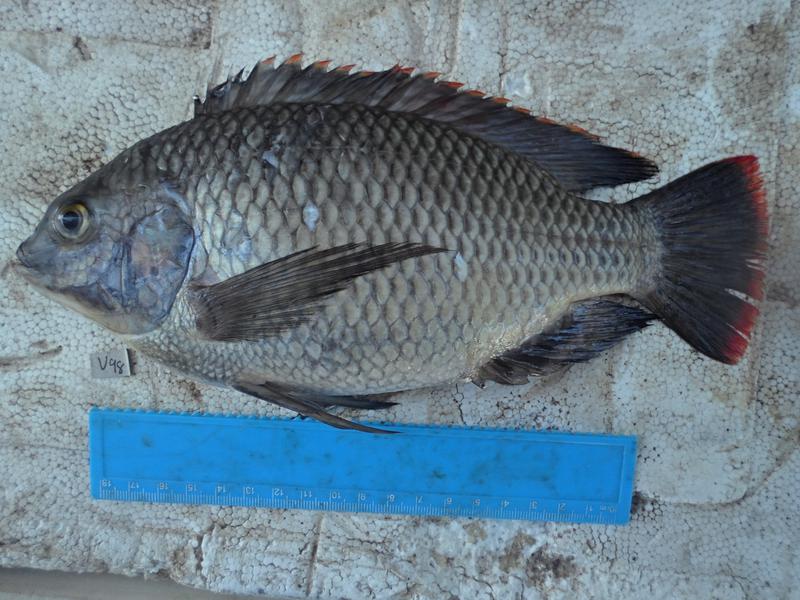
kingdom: Animalia
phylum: Chordata
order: Perciformes
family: Cichlidae
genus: Oreochromis
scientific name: Oreochromis variabilis
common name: Victoria tilapia
